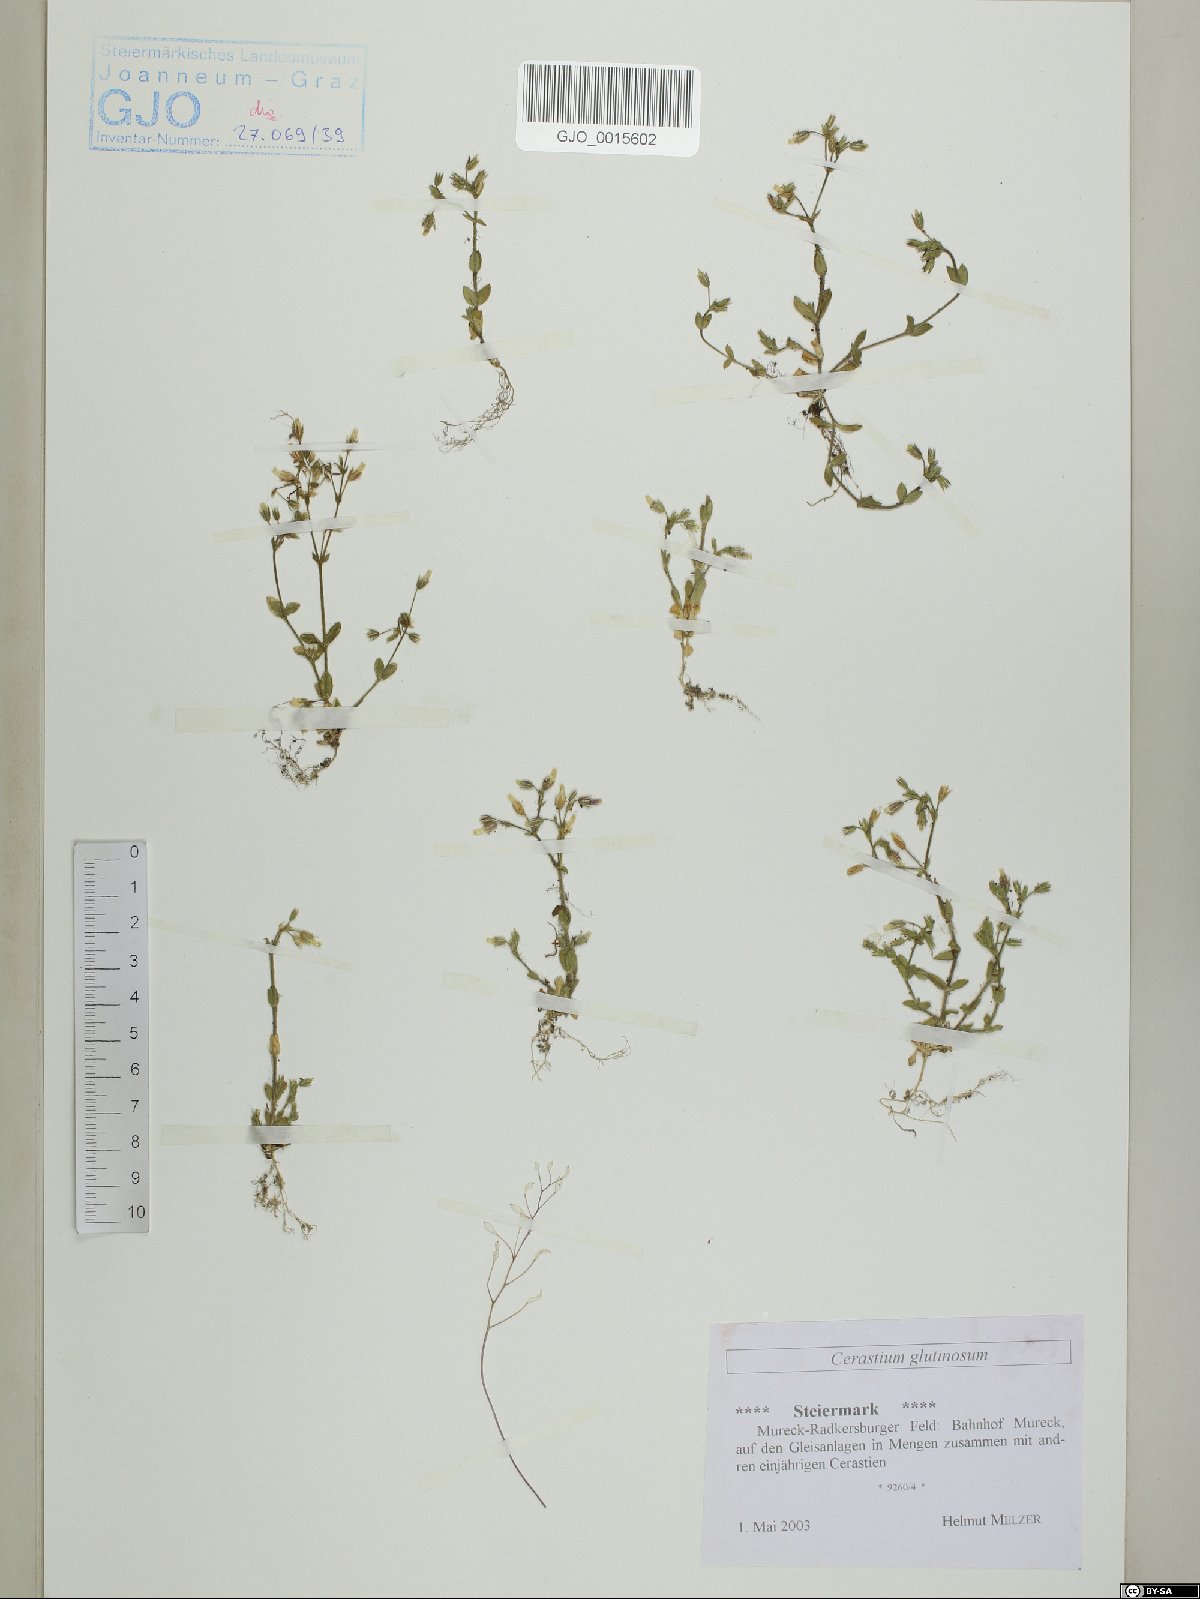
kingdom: Plantae
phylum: Tracheophyta
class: Magnoliopsida
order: Caryophyllales
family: Caryophyllaceae
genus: Cerastium
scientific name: Cerastium glutinosum
